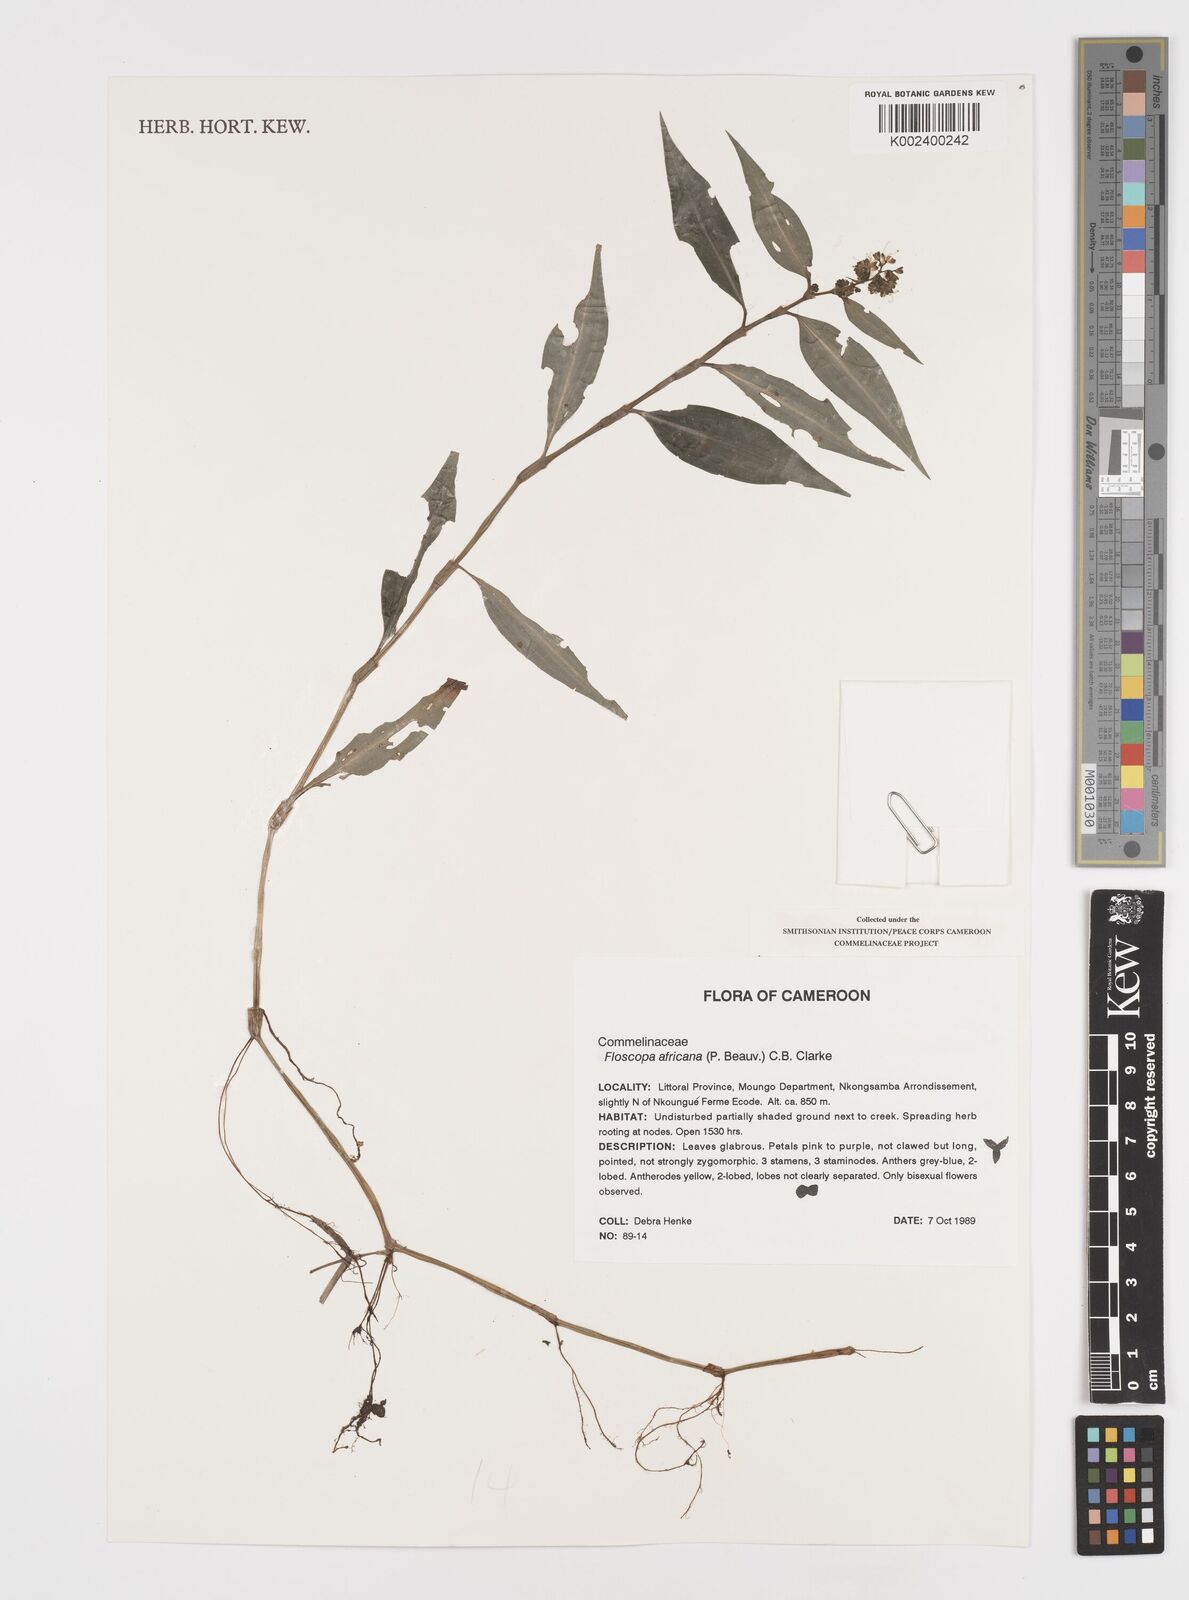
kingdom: Plantae
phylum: Tracheophyta
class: Liliopsida
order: Commelinales
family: Commelinaceae
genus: Floscopa
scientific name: Floscopa africana
